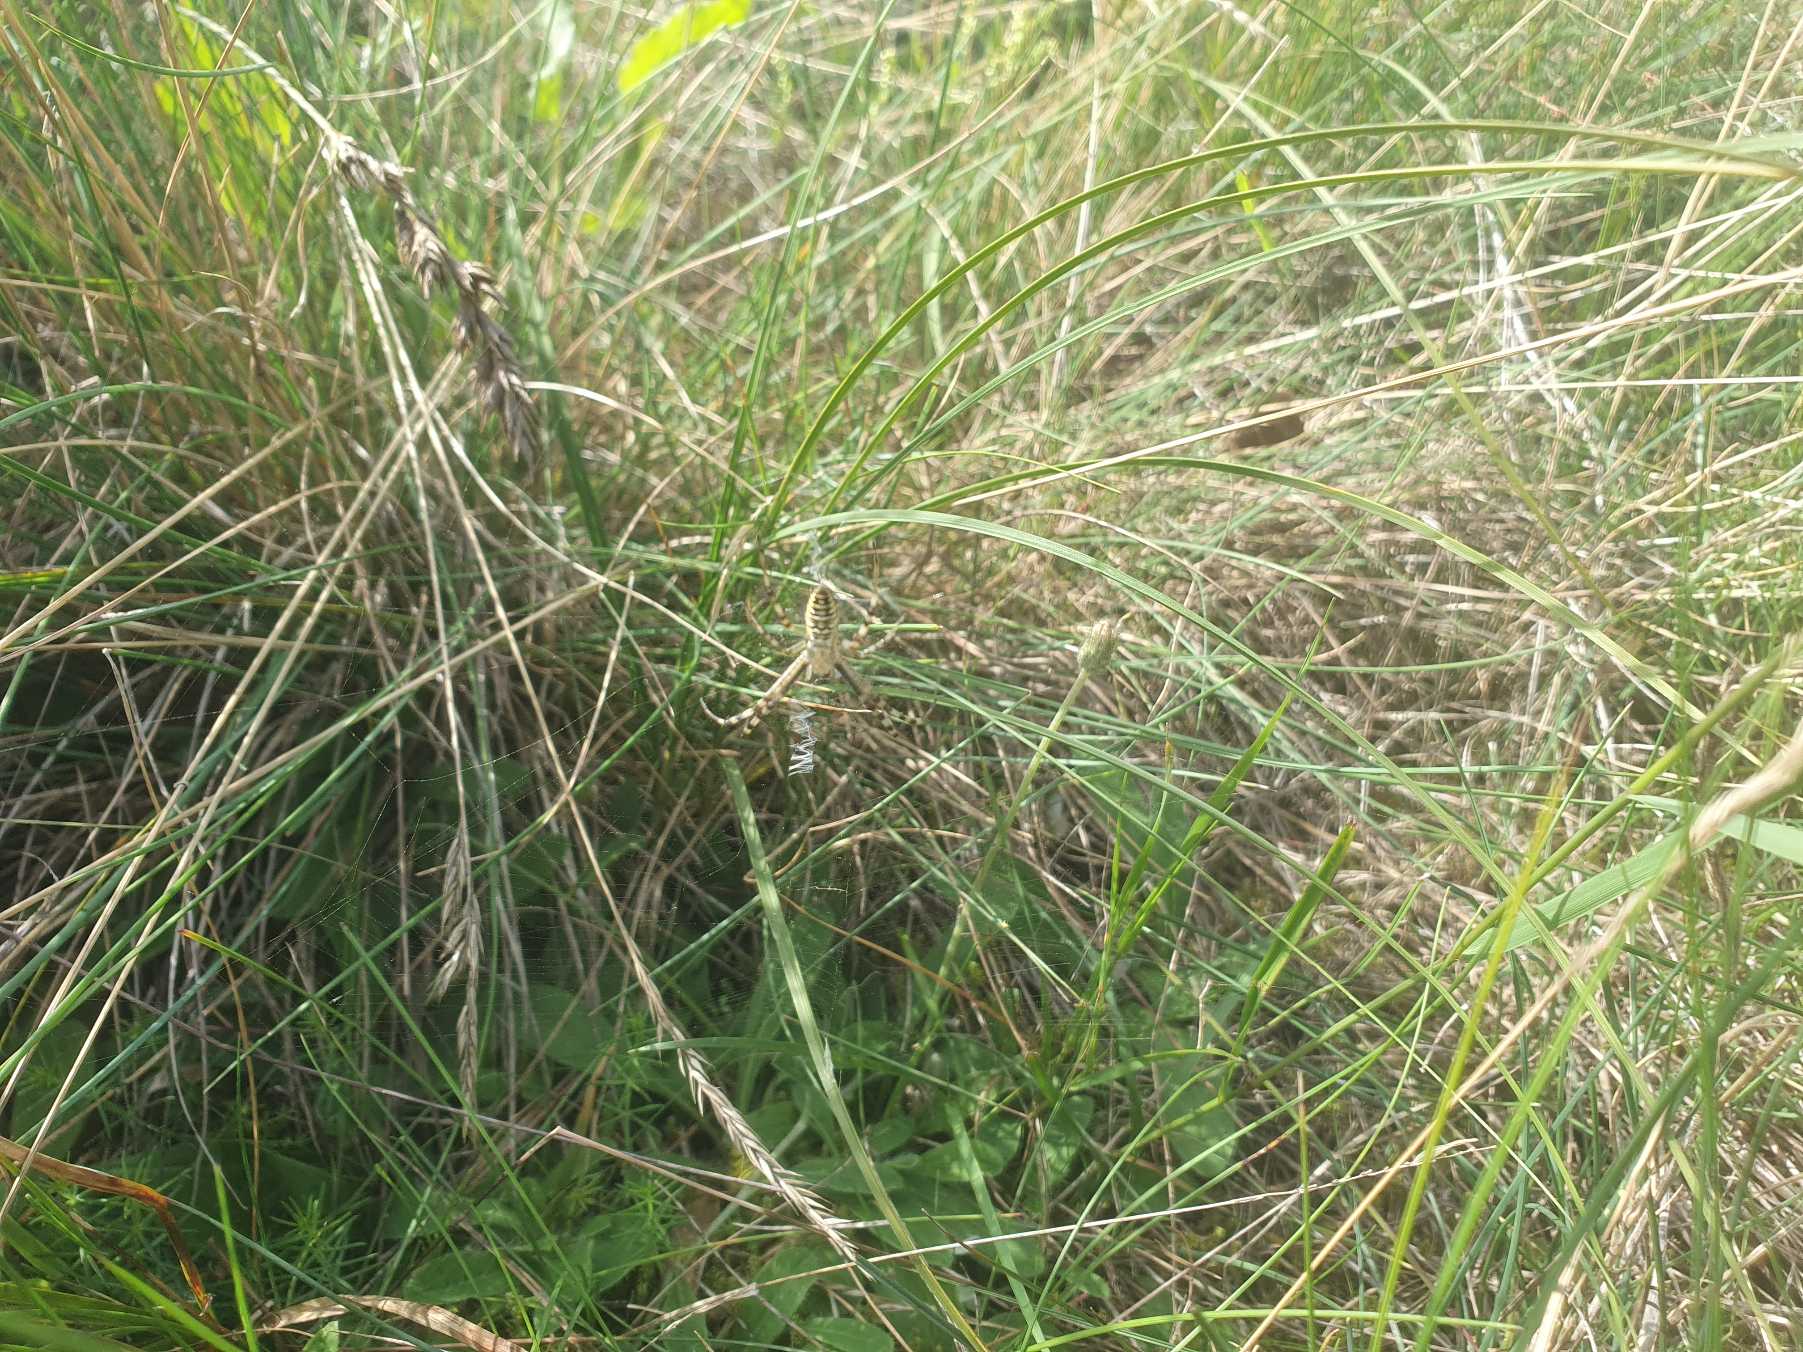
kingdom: Animalia
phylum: Arthropoda
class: Arachnida
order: Araneae
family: Araneidae
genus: Argiope
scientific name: Argiope bruennichi
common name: Hvepseedderkop
